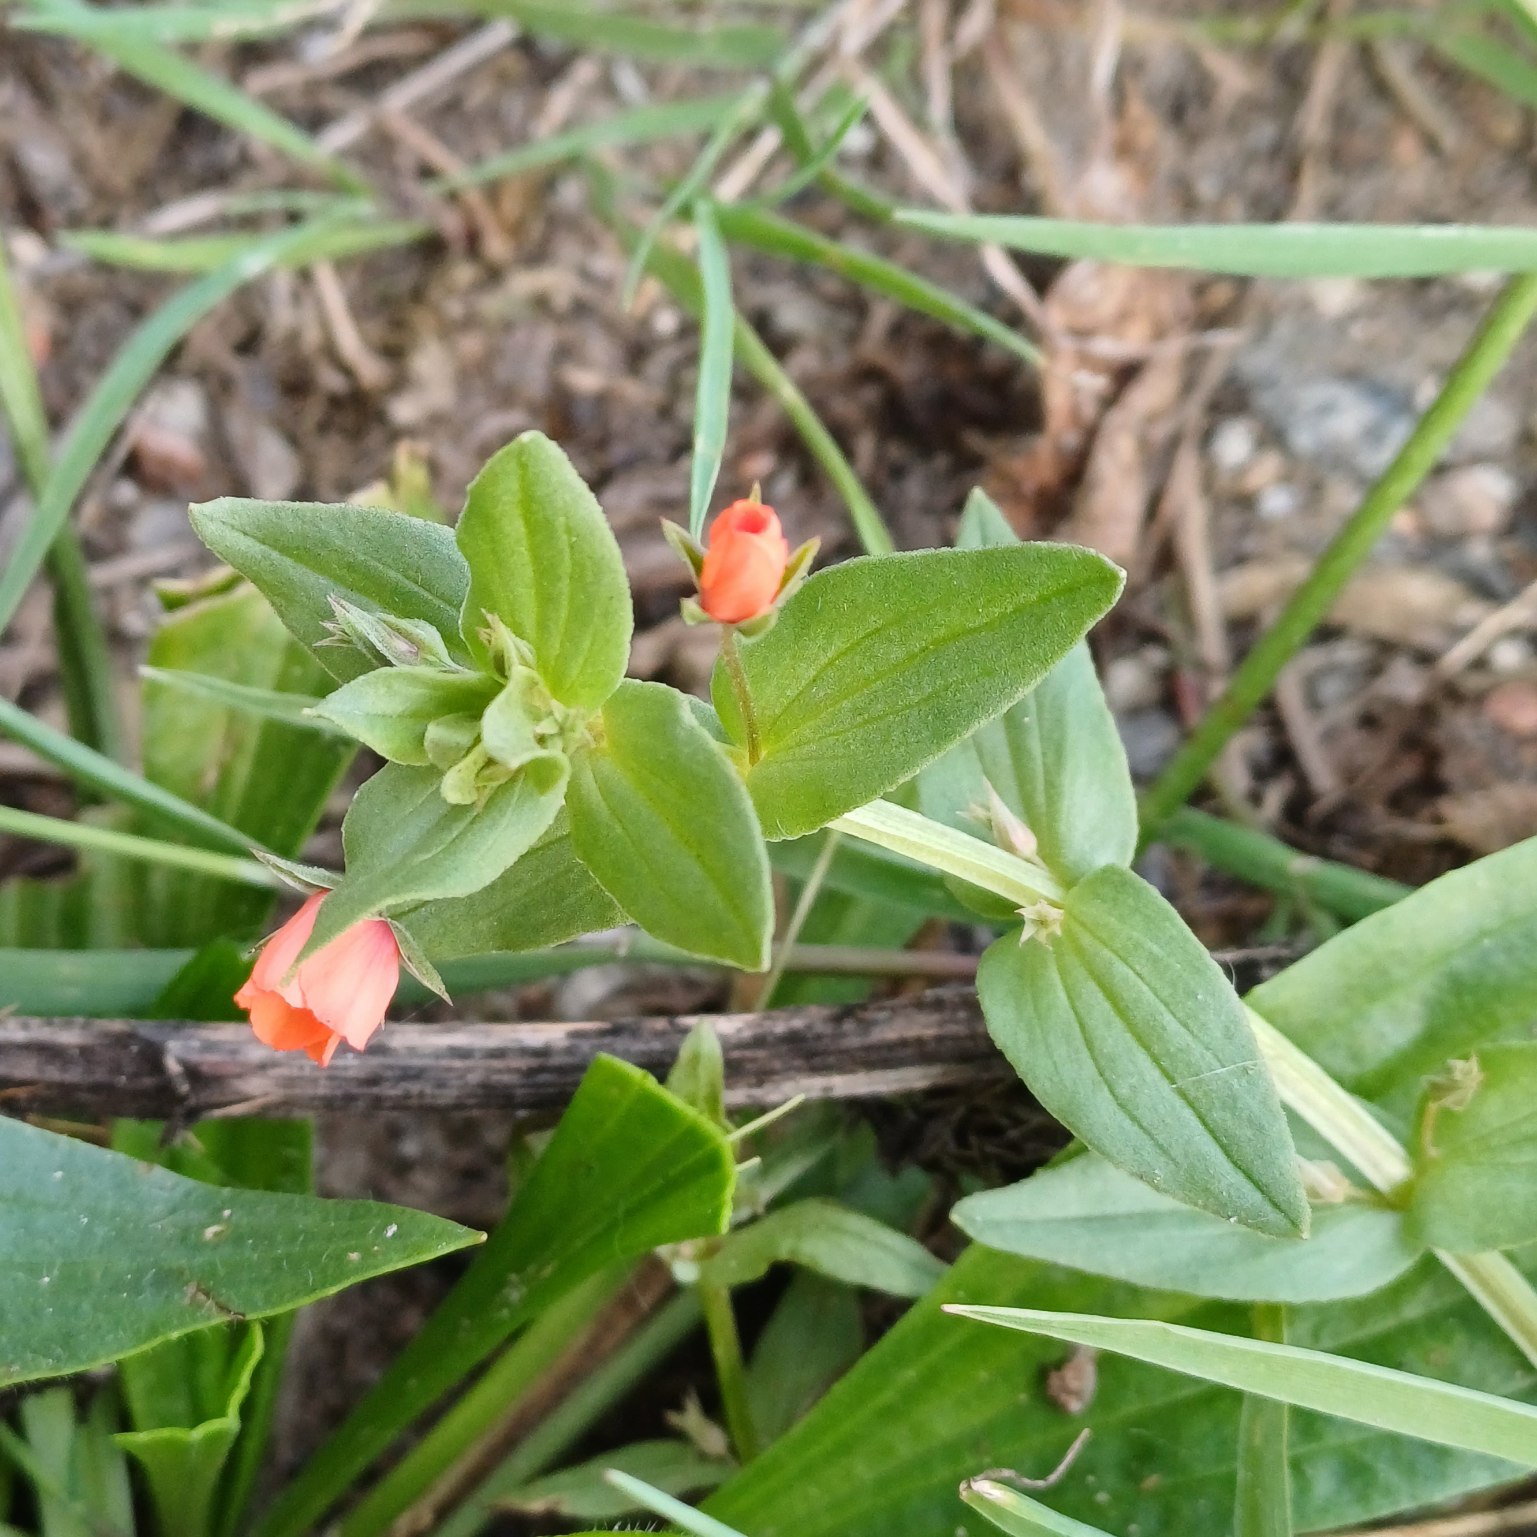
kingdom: Plantae
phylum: Tracheophyta
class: Magnoliopsida
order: Ericales
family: Primulaceae
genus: Lysimachia
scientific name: Lysimachia arvensis
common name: Rød arve
